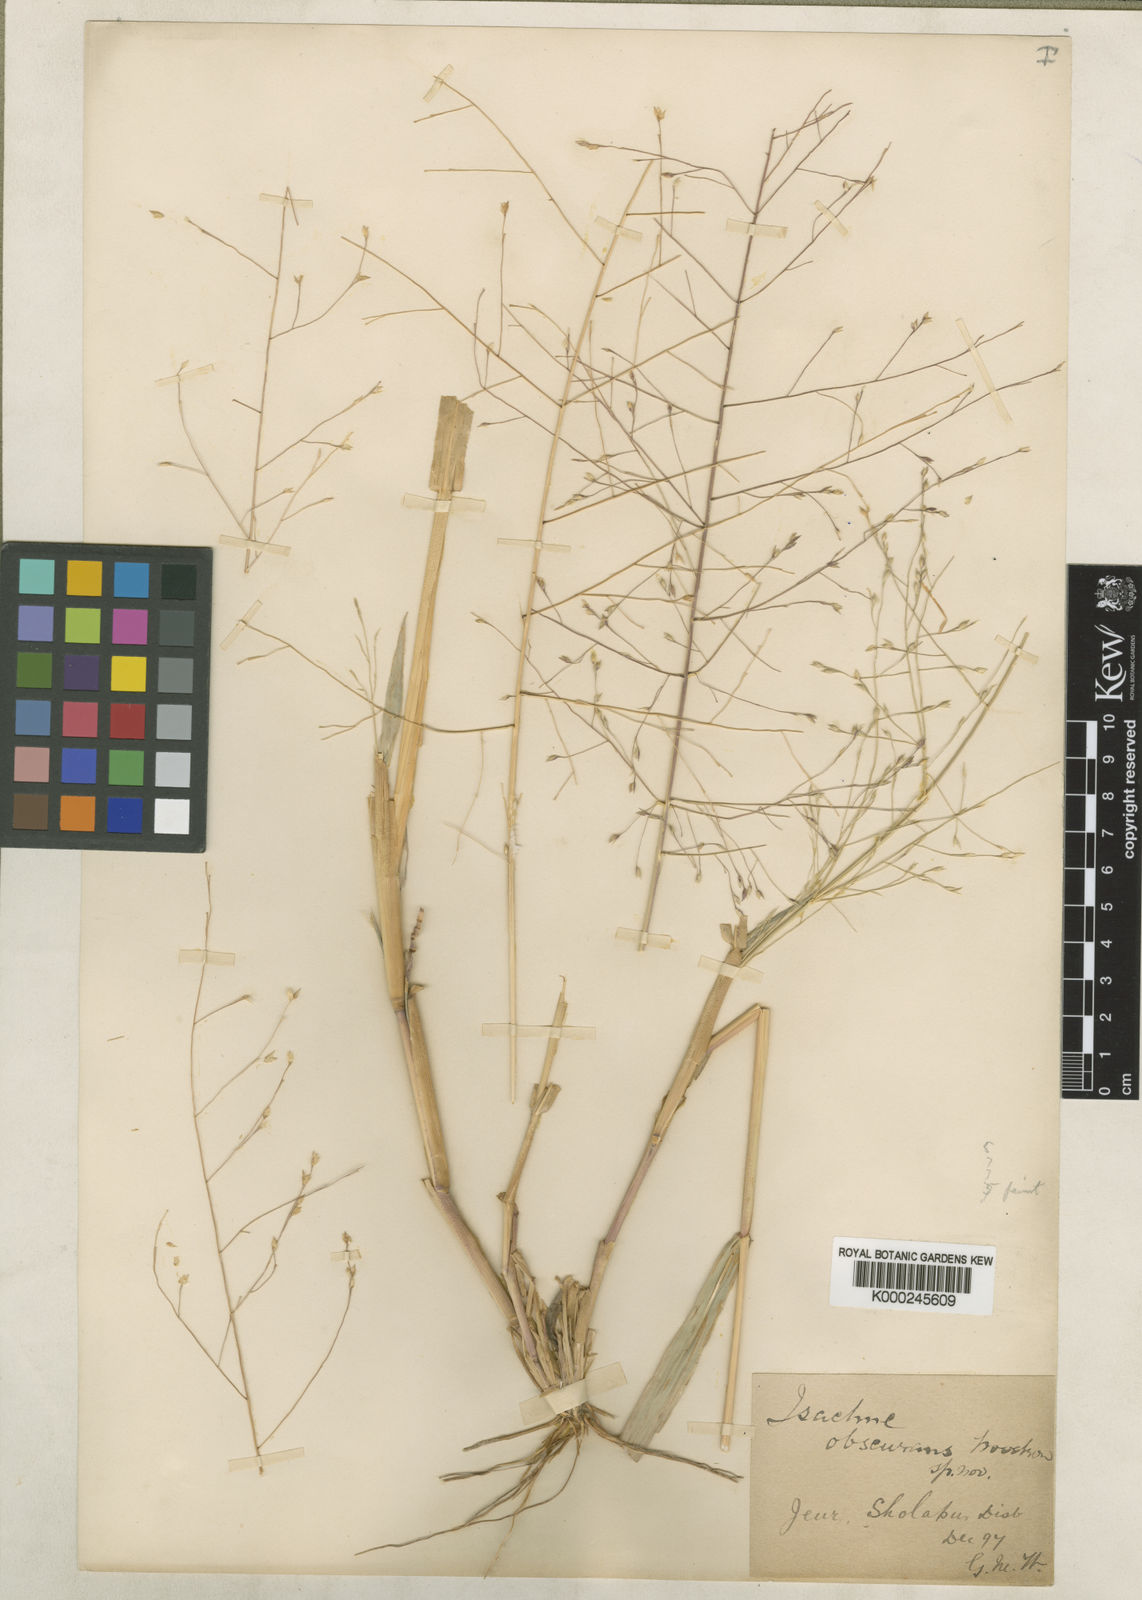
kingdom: Plantae
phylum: Tracheophyta
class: Liliopsida
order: Poales
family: Poaceae
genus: Panicum
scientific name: Panicum hippothrix
